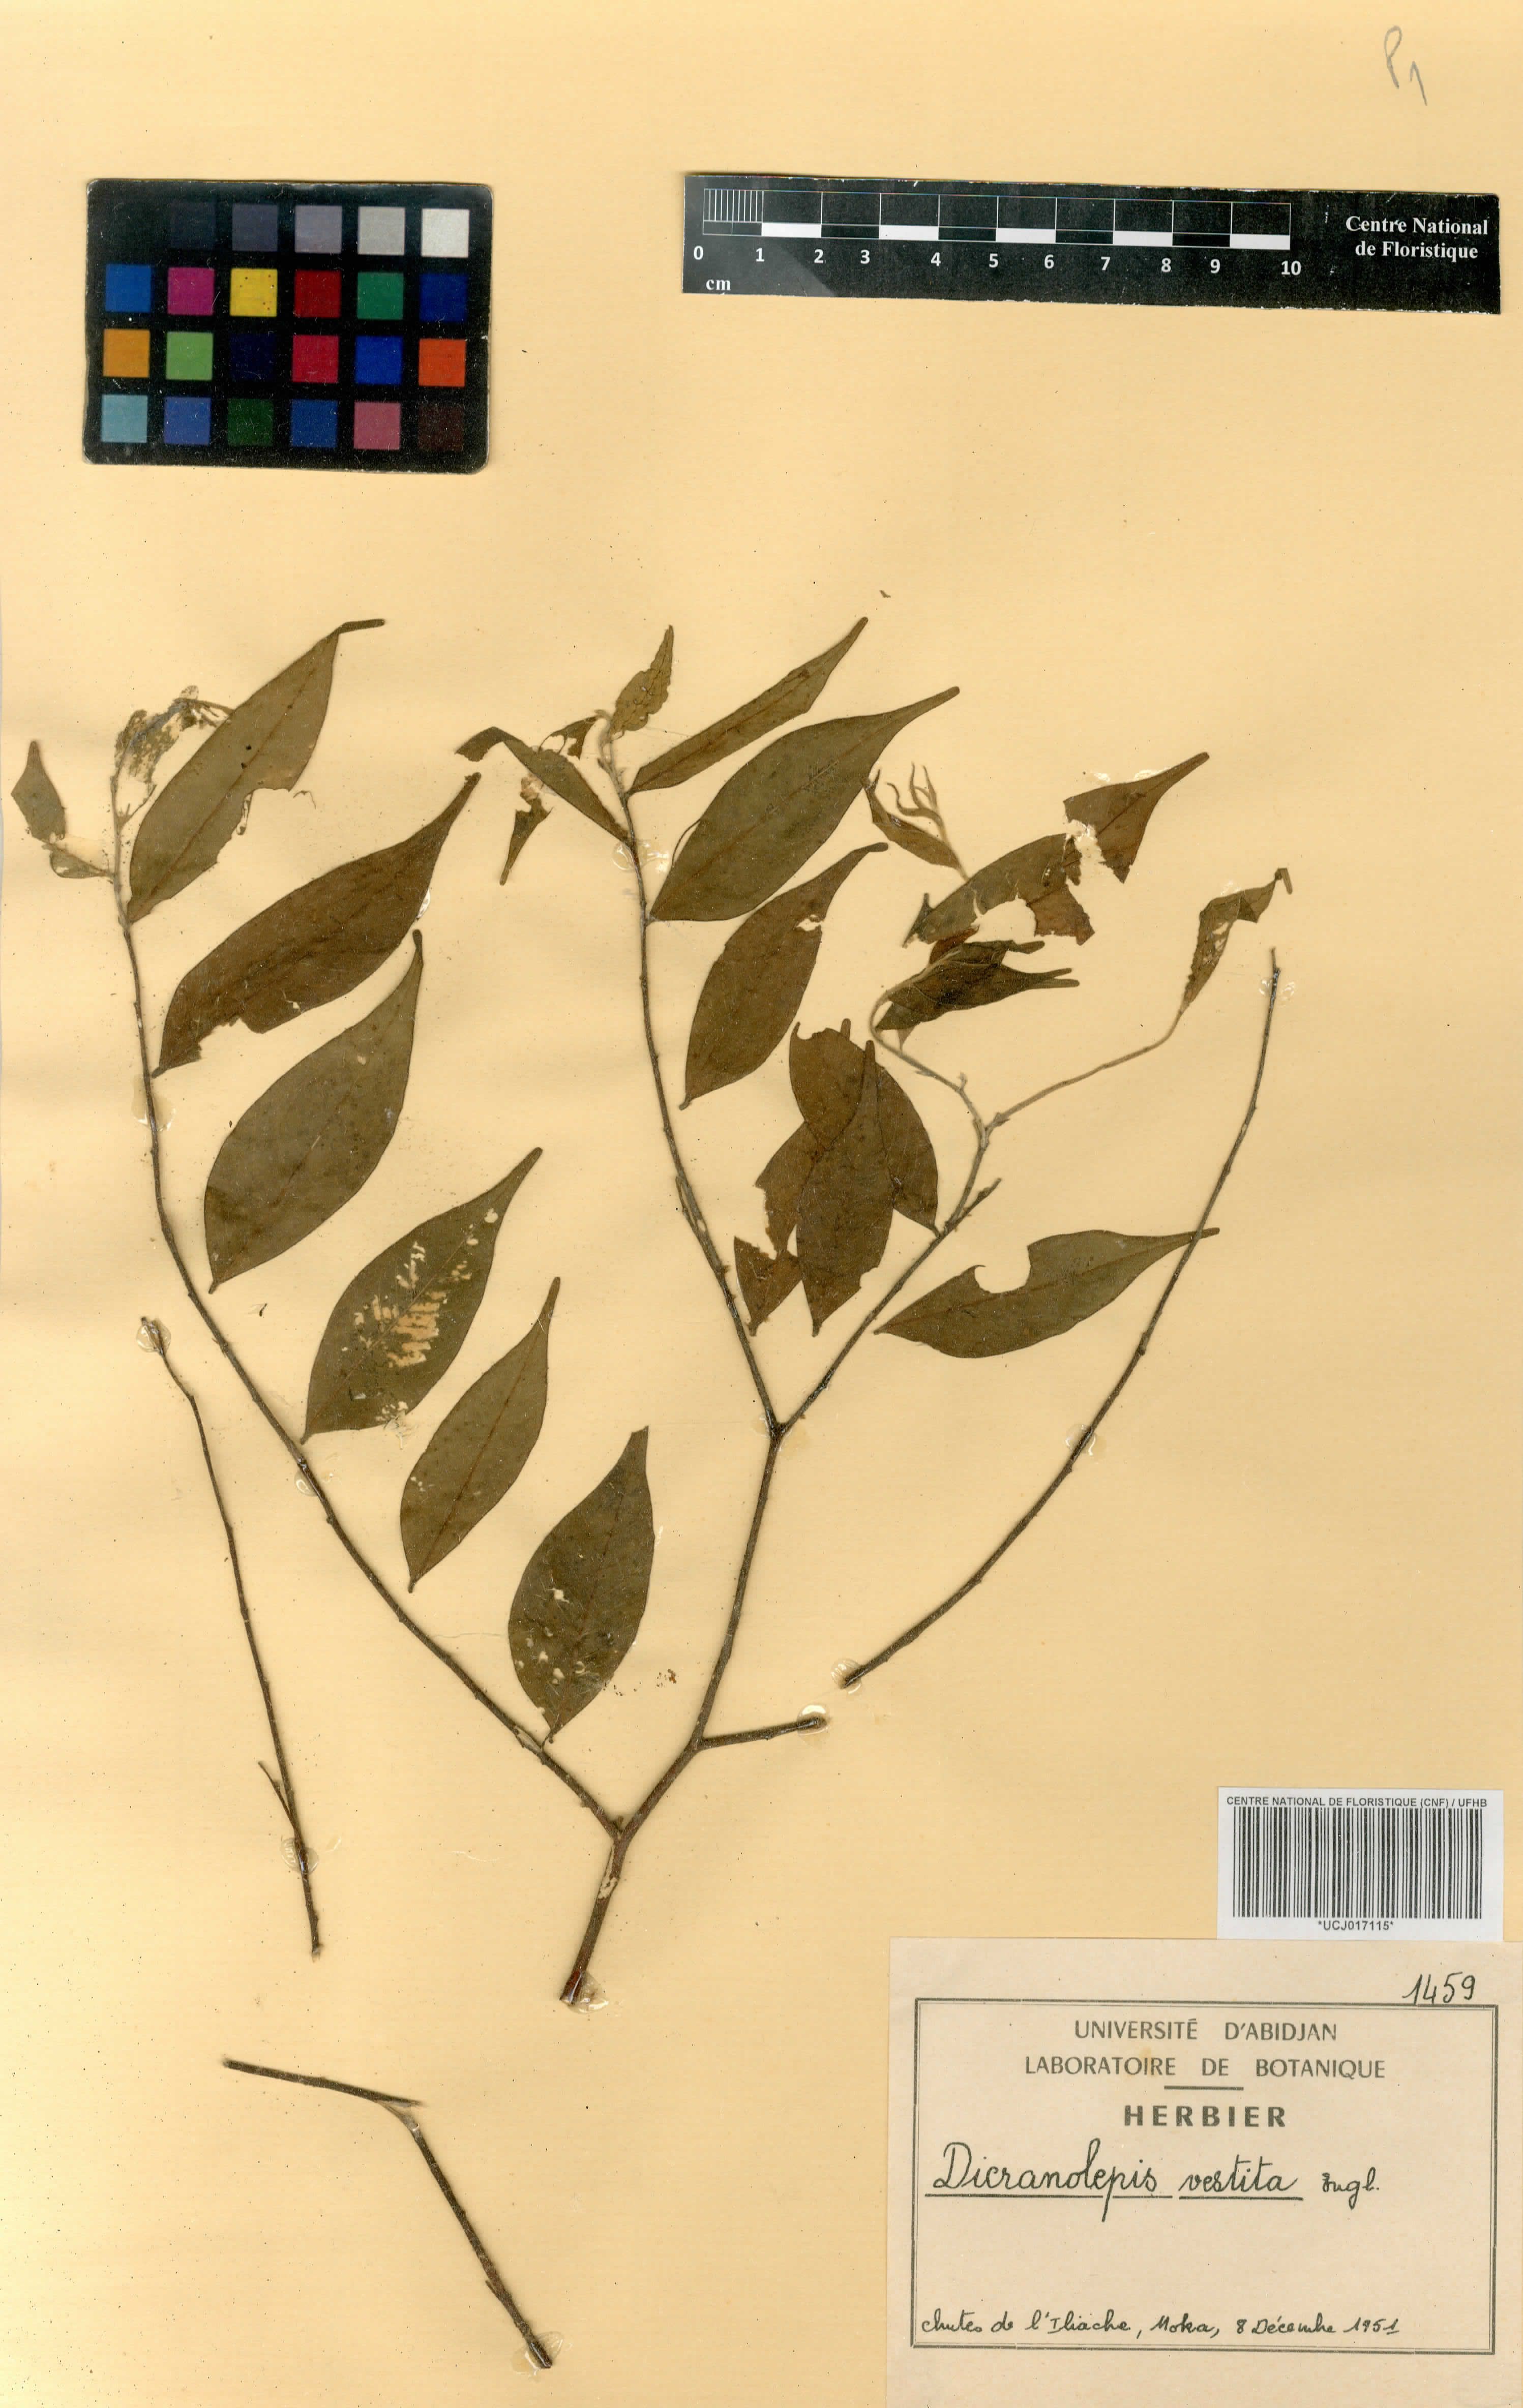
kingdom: Plantae
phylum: Tracheophyta
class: Magnoliopsida
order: Malvales
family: Thymelaeaceae
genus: Dicranolepis
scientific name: Dicranolepis vestita
